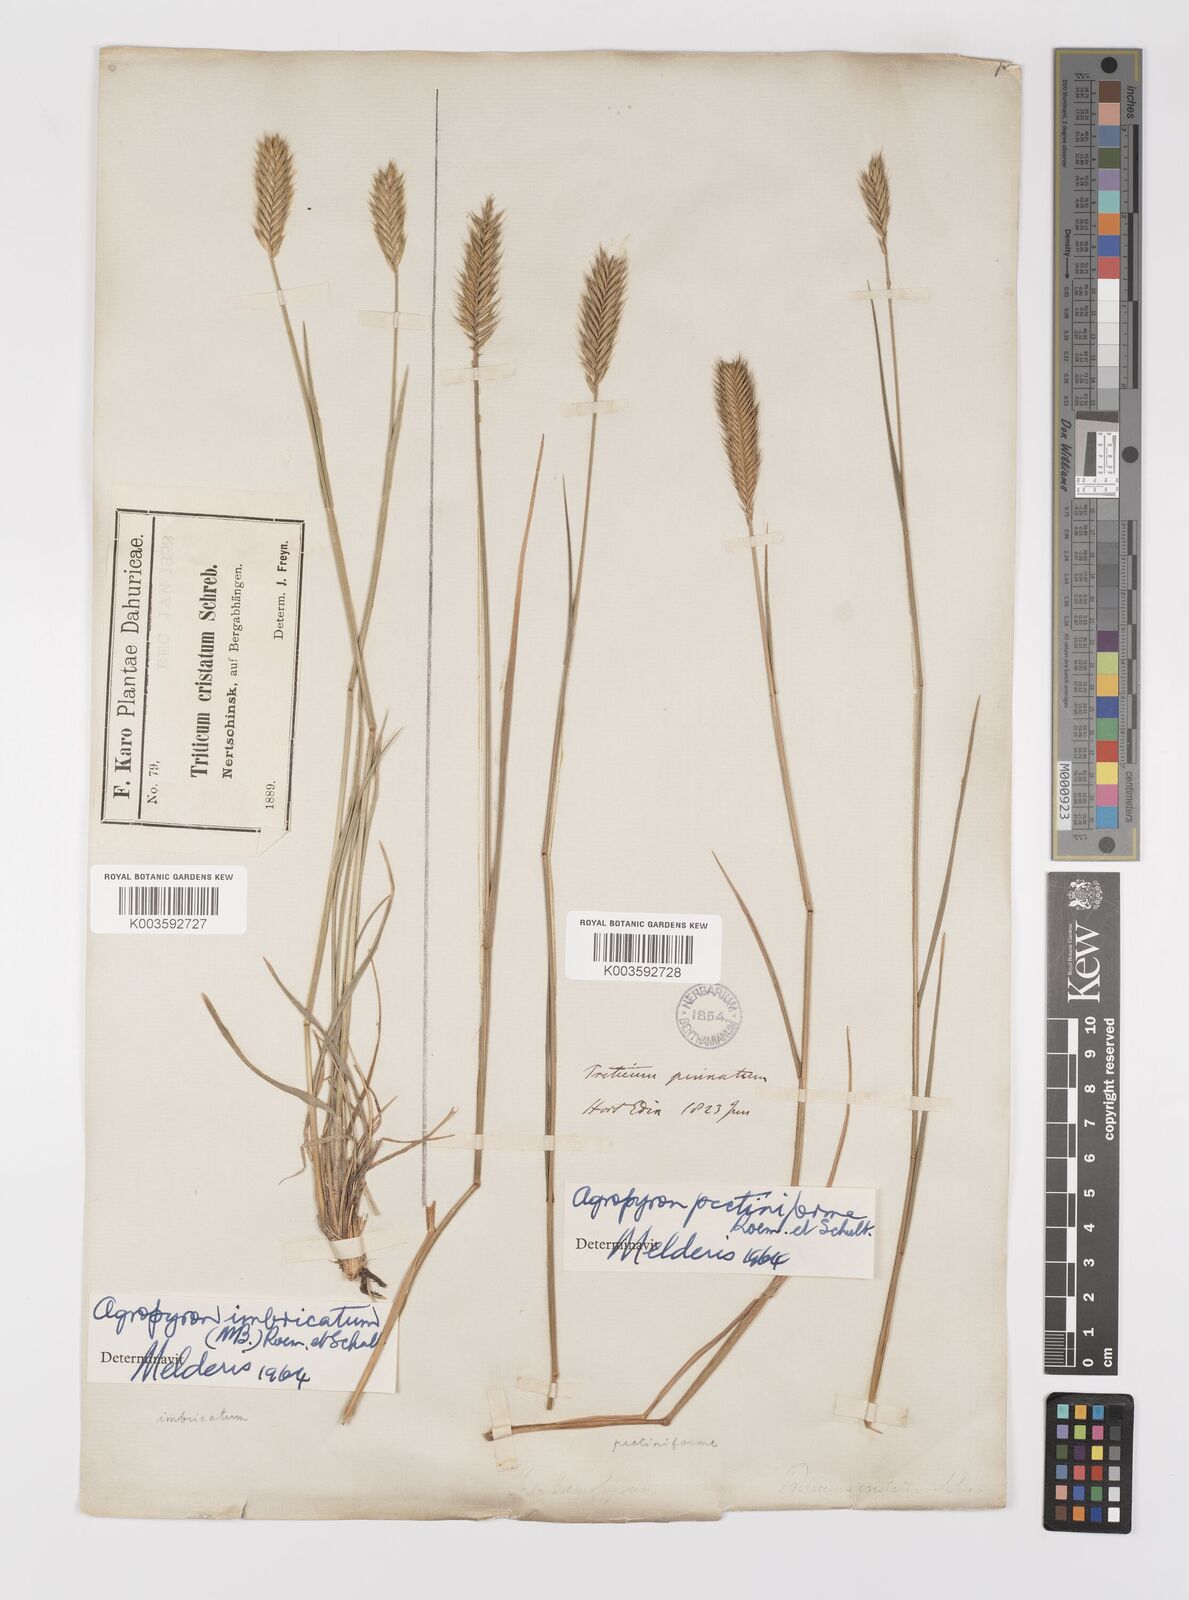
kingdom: Plantae
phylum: Tracheophyta
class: Liliopsida
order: Poales
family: Poaceae
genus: Agropyron
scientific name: Agropyron cristatum
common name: Crested wheatgrass
